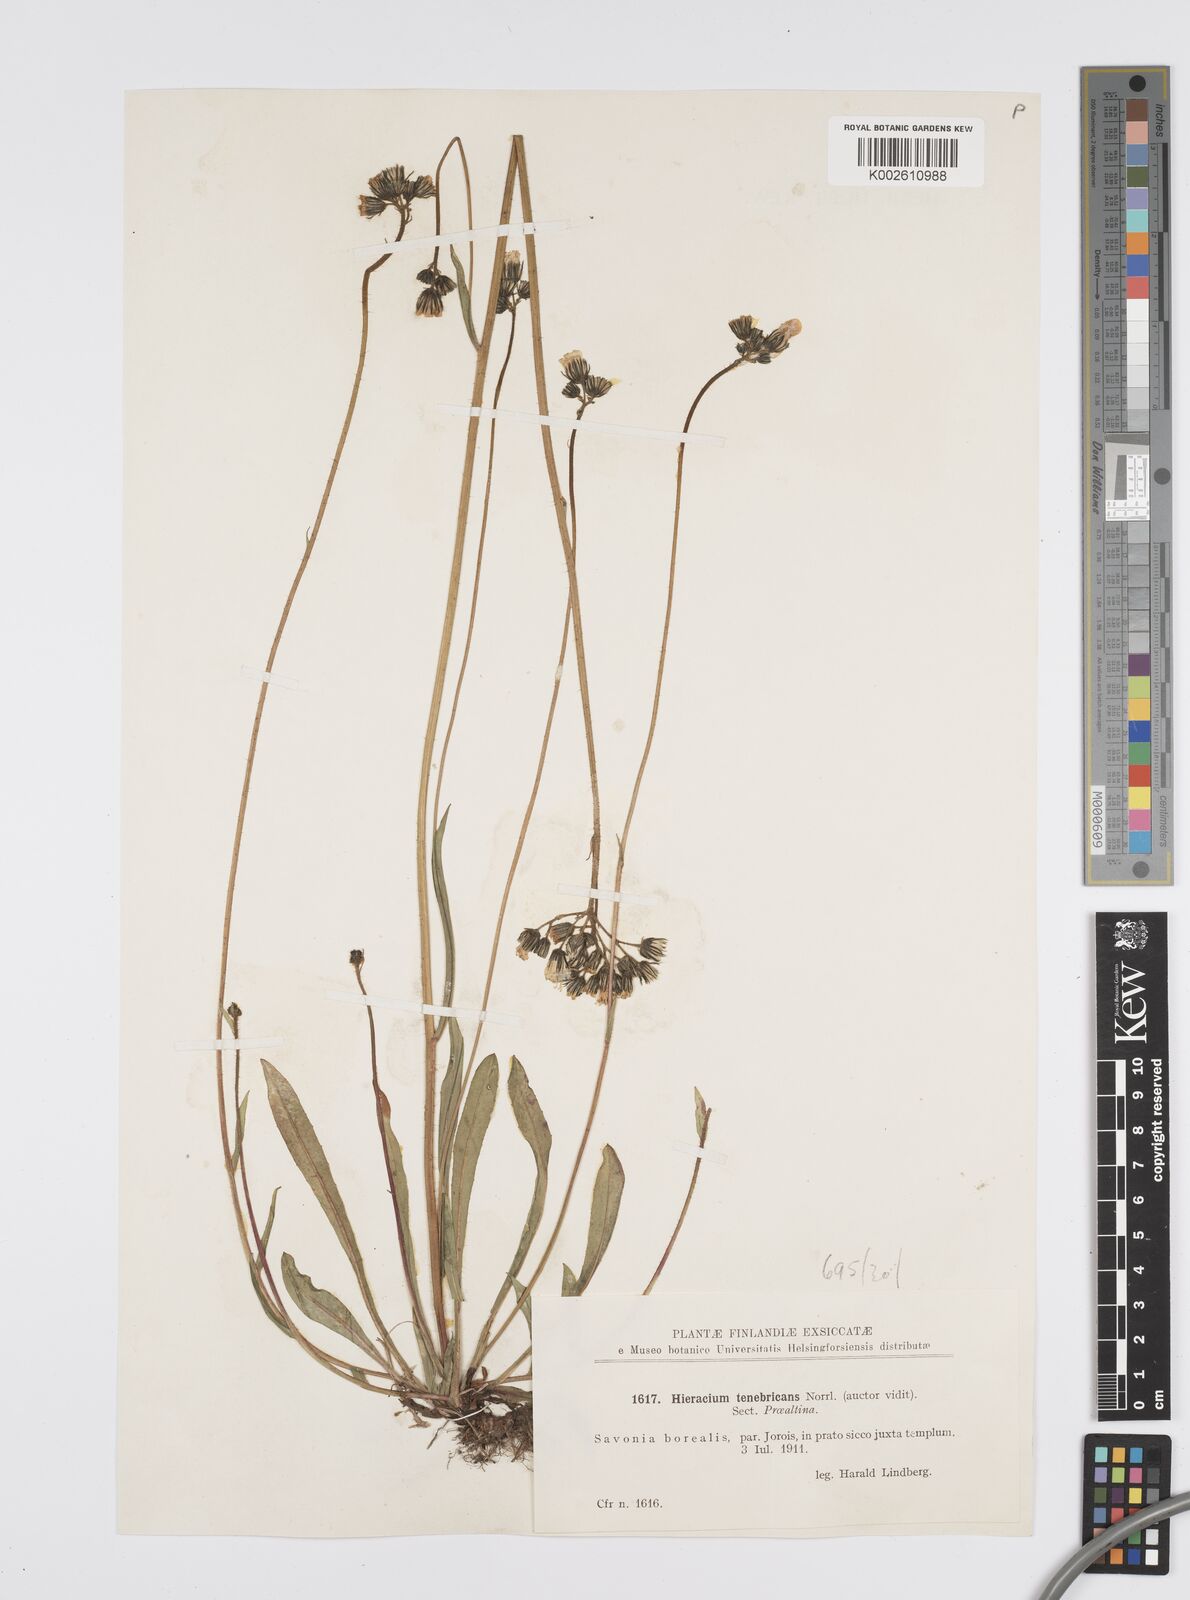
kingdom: Plantae
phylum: Tracheophyta
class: Magnoliopsida
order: Asterales
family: Asteraceae
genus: Hieracium
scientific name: Hieracium
